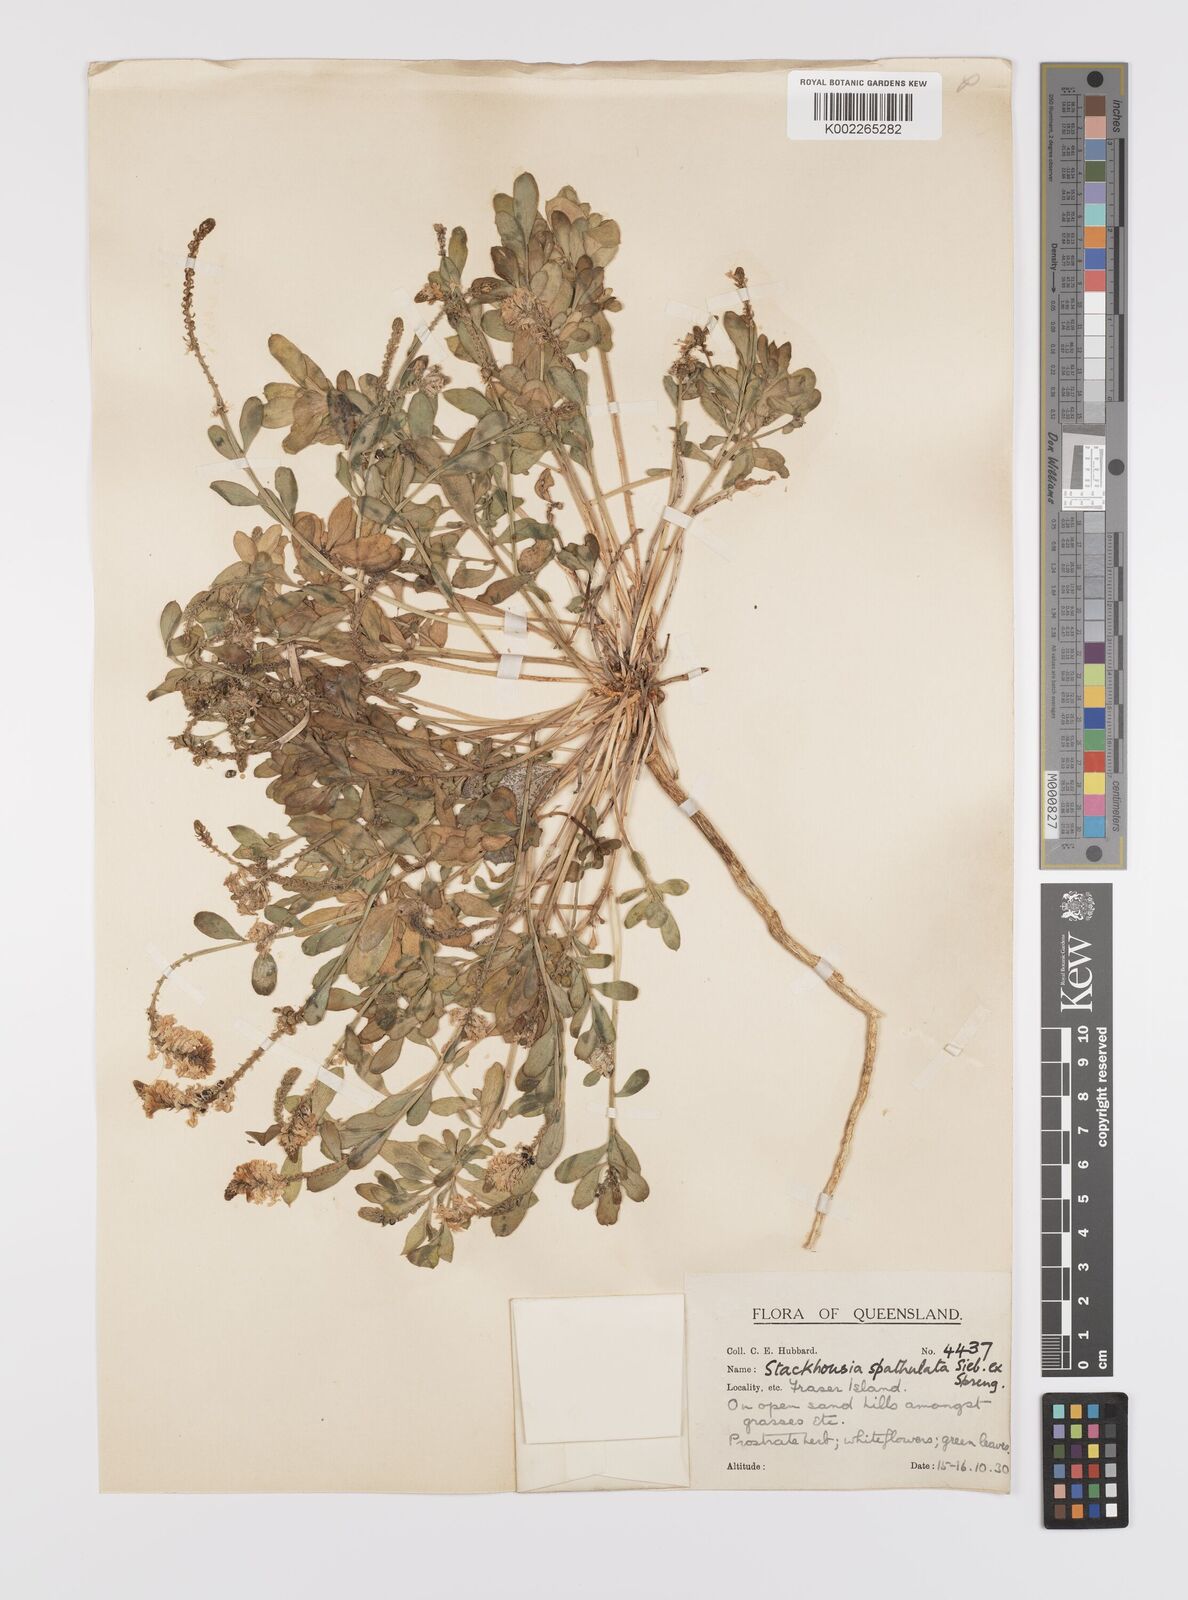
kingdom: Plantae
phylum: Tracheophyta
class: Magnoliopsida
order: Celastrales
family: Celastraceae
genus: Stackhousia
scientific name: Stackhousia spathulata
